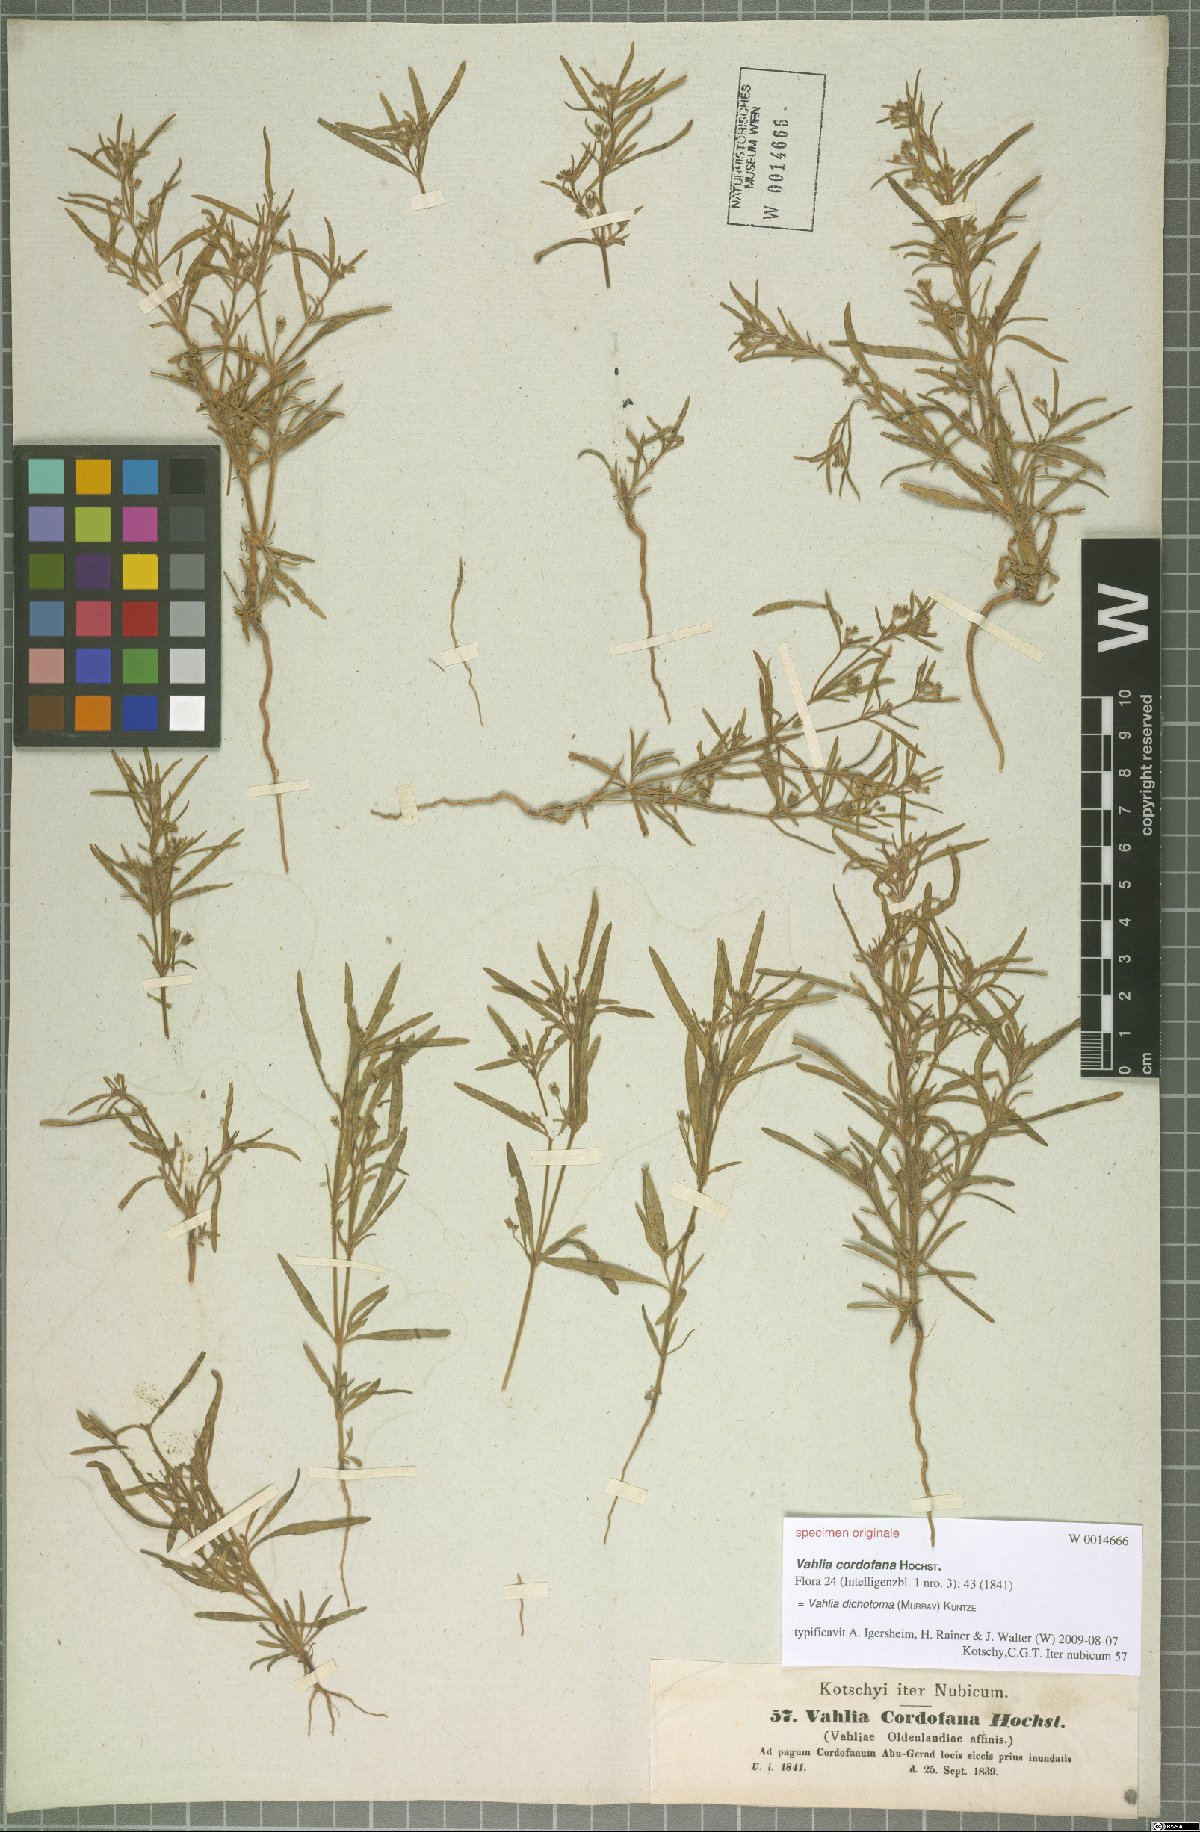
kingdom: Plantae
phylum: Tracheophyta
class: Magnoliopsida
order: Vahliales
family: Vahliaceae
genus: Vahlia
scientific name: Vahlia dichotoma
